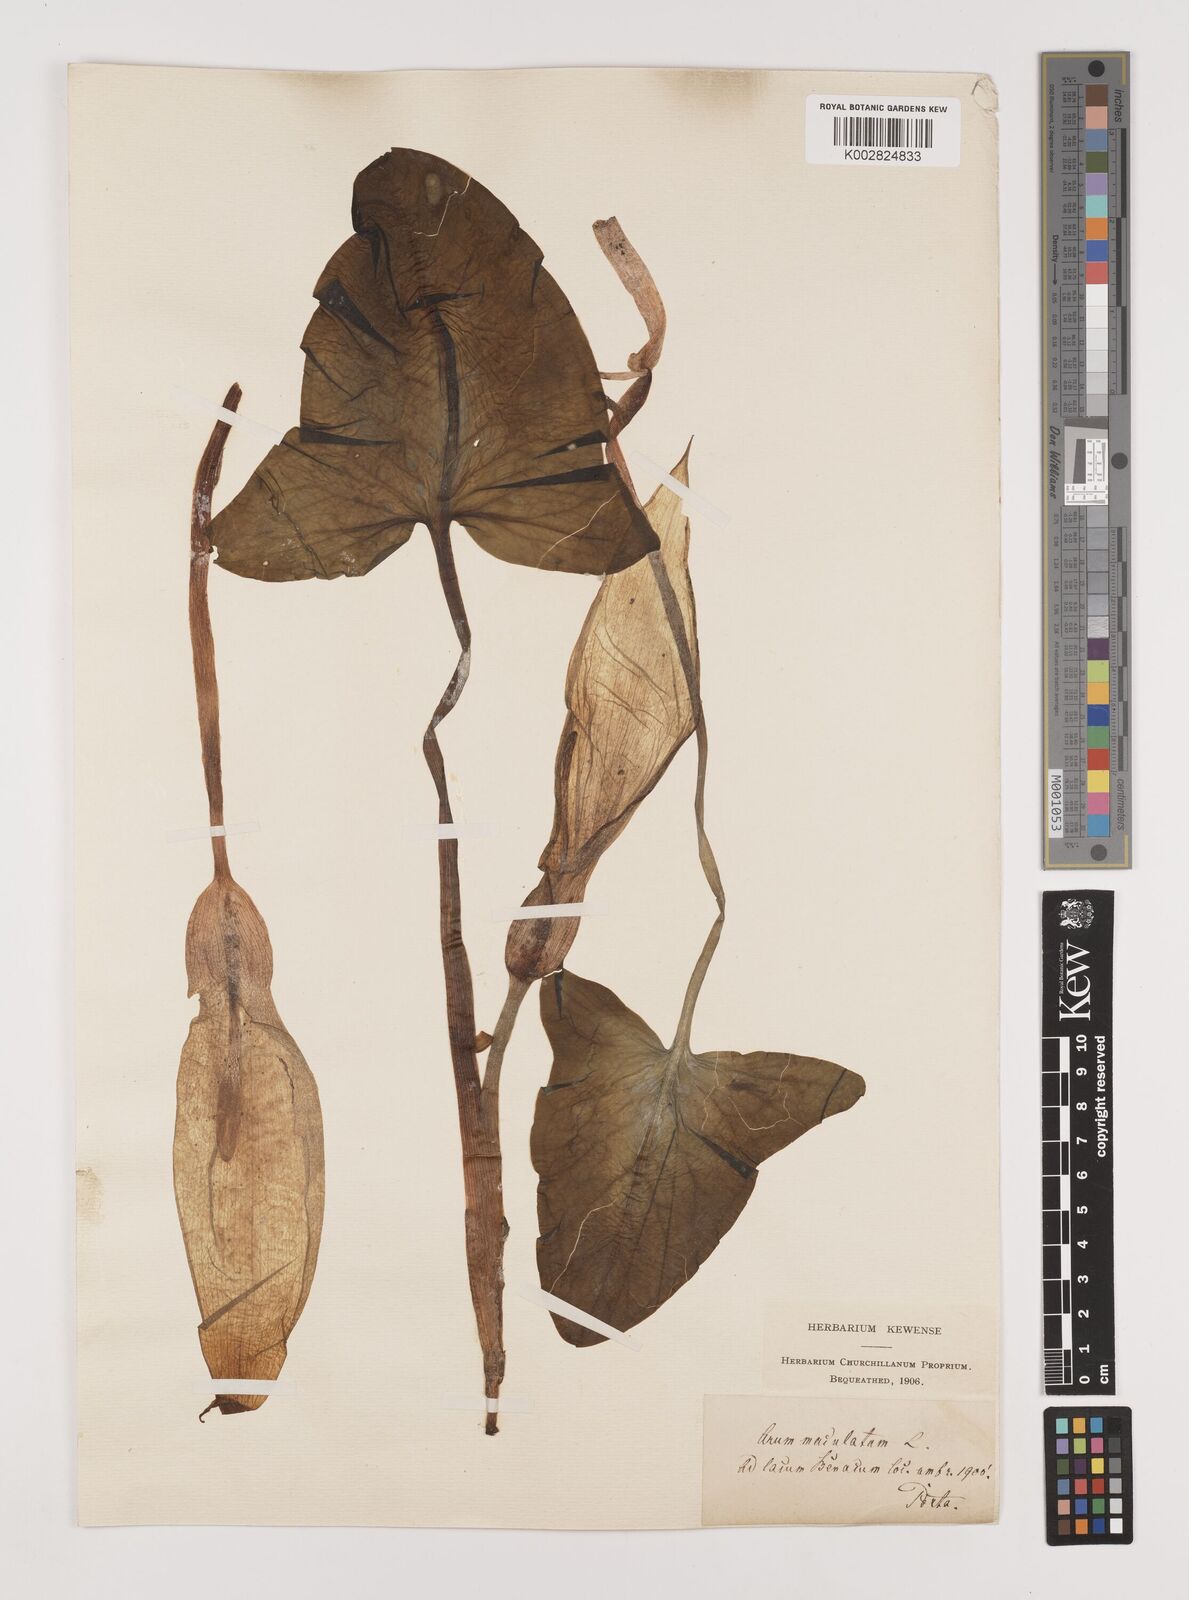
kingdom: Plantae
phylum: Tracheophyta
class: Liliopsida
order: Alismatales
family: Araceae
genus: Arum
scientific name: Arum maculatum
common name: Lords-and-ladies
